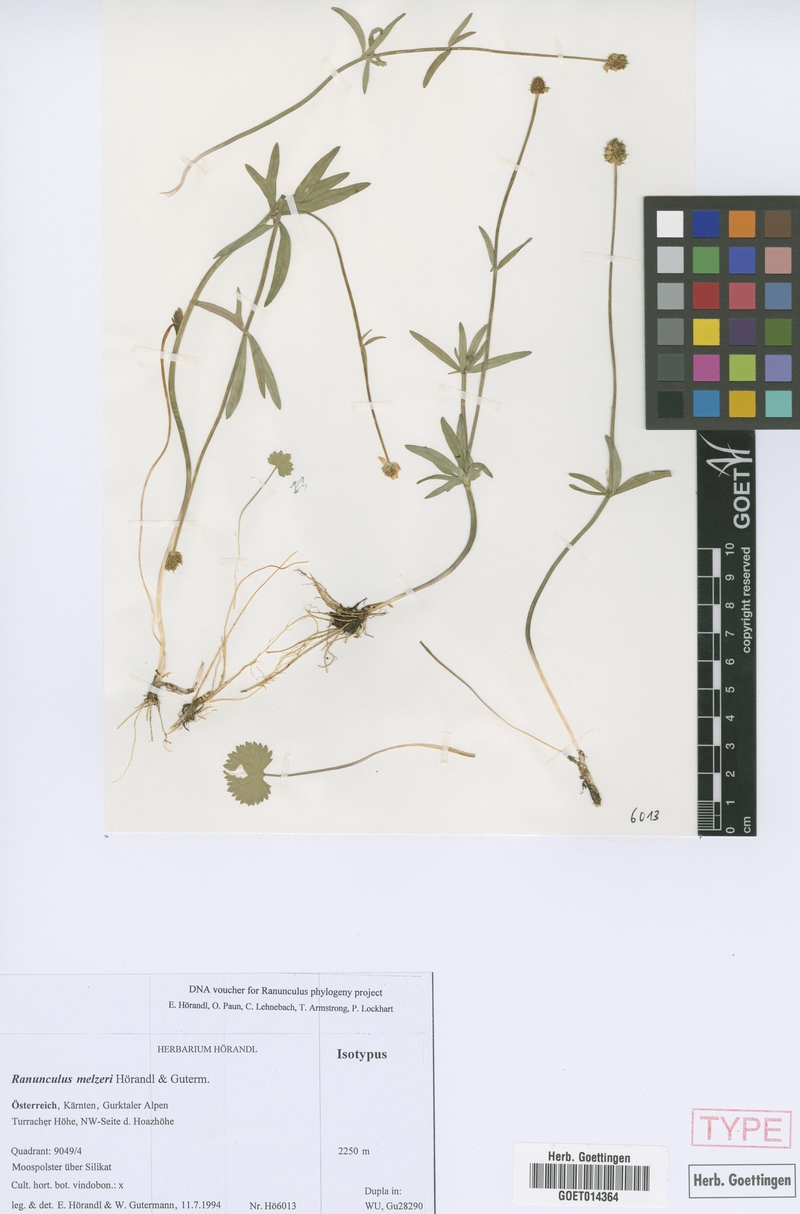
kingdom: Plantae
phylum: Tracheophyta
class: Magnoliopsida
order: Ranunculales
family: Ranunculaceae
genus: Ranunculus
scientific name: Ranunculus melzeri
